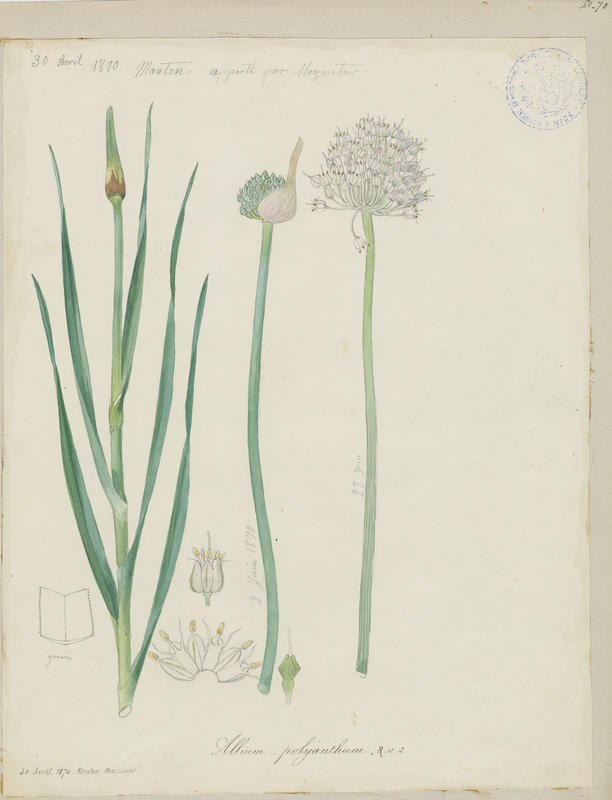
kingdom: Plantae
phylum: Tracheophyta
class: Liliopsida
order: Asparagales
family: Amaryllidaceae
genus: Allium
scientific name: Allium ampeloprasum
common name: Wild leek
